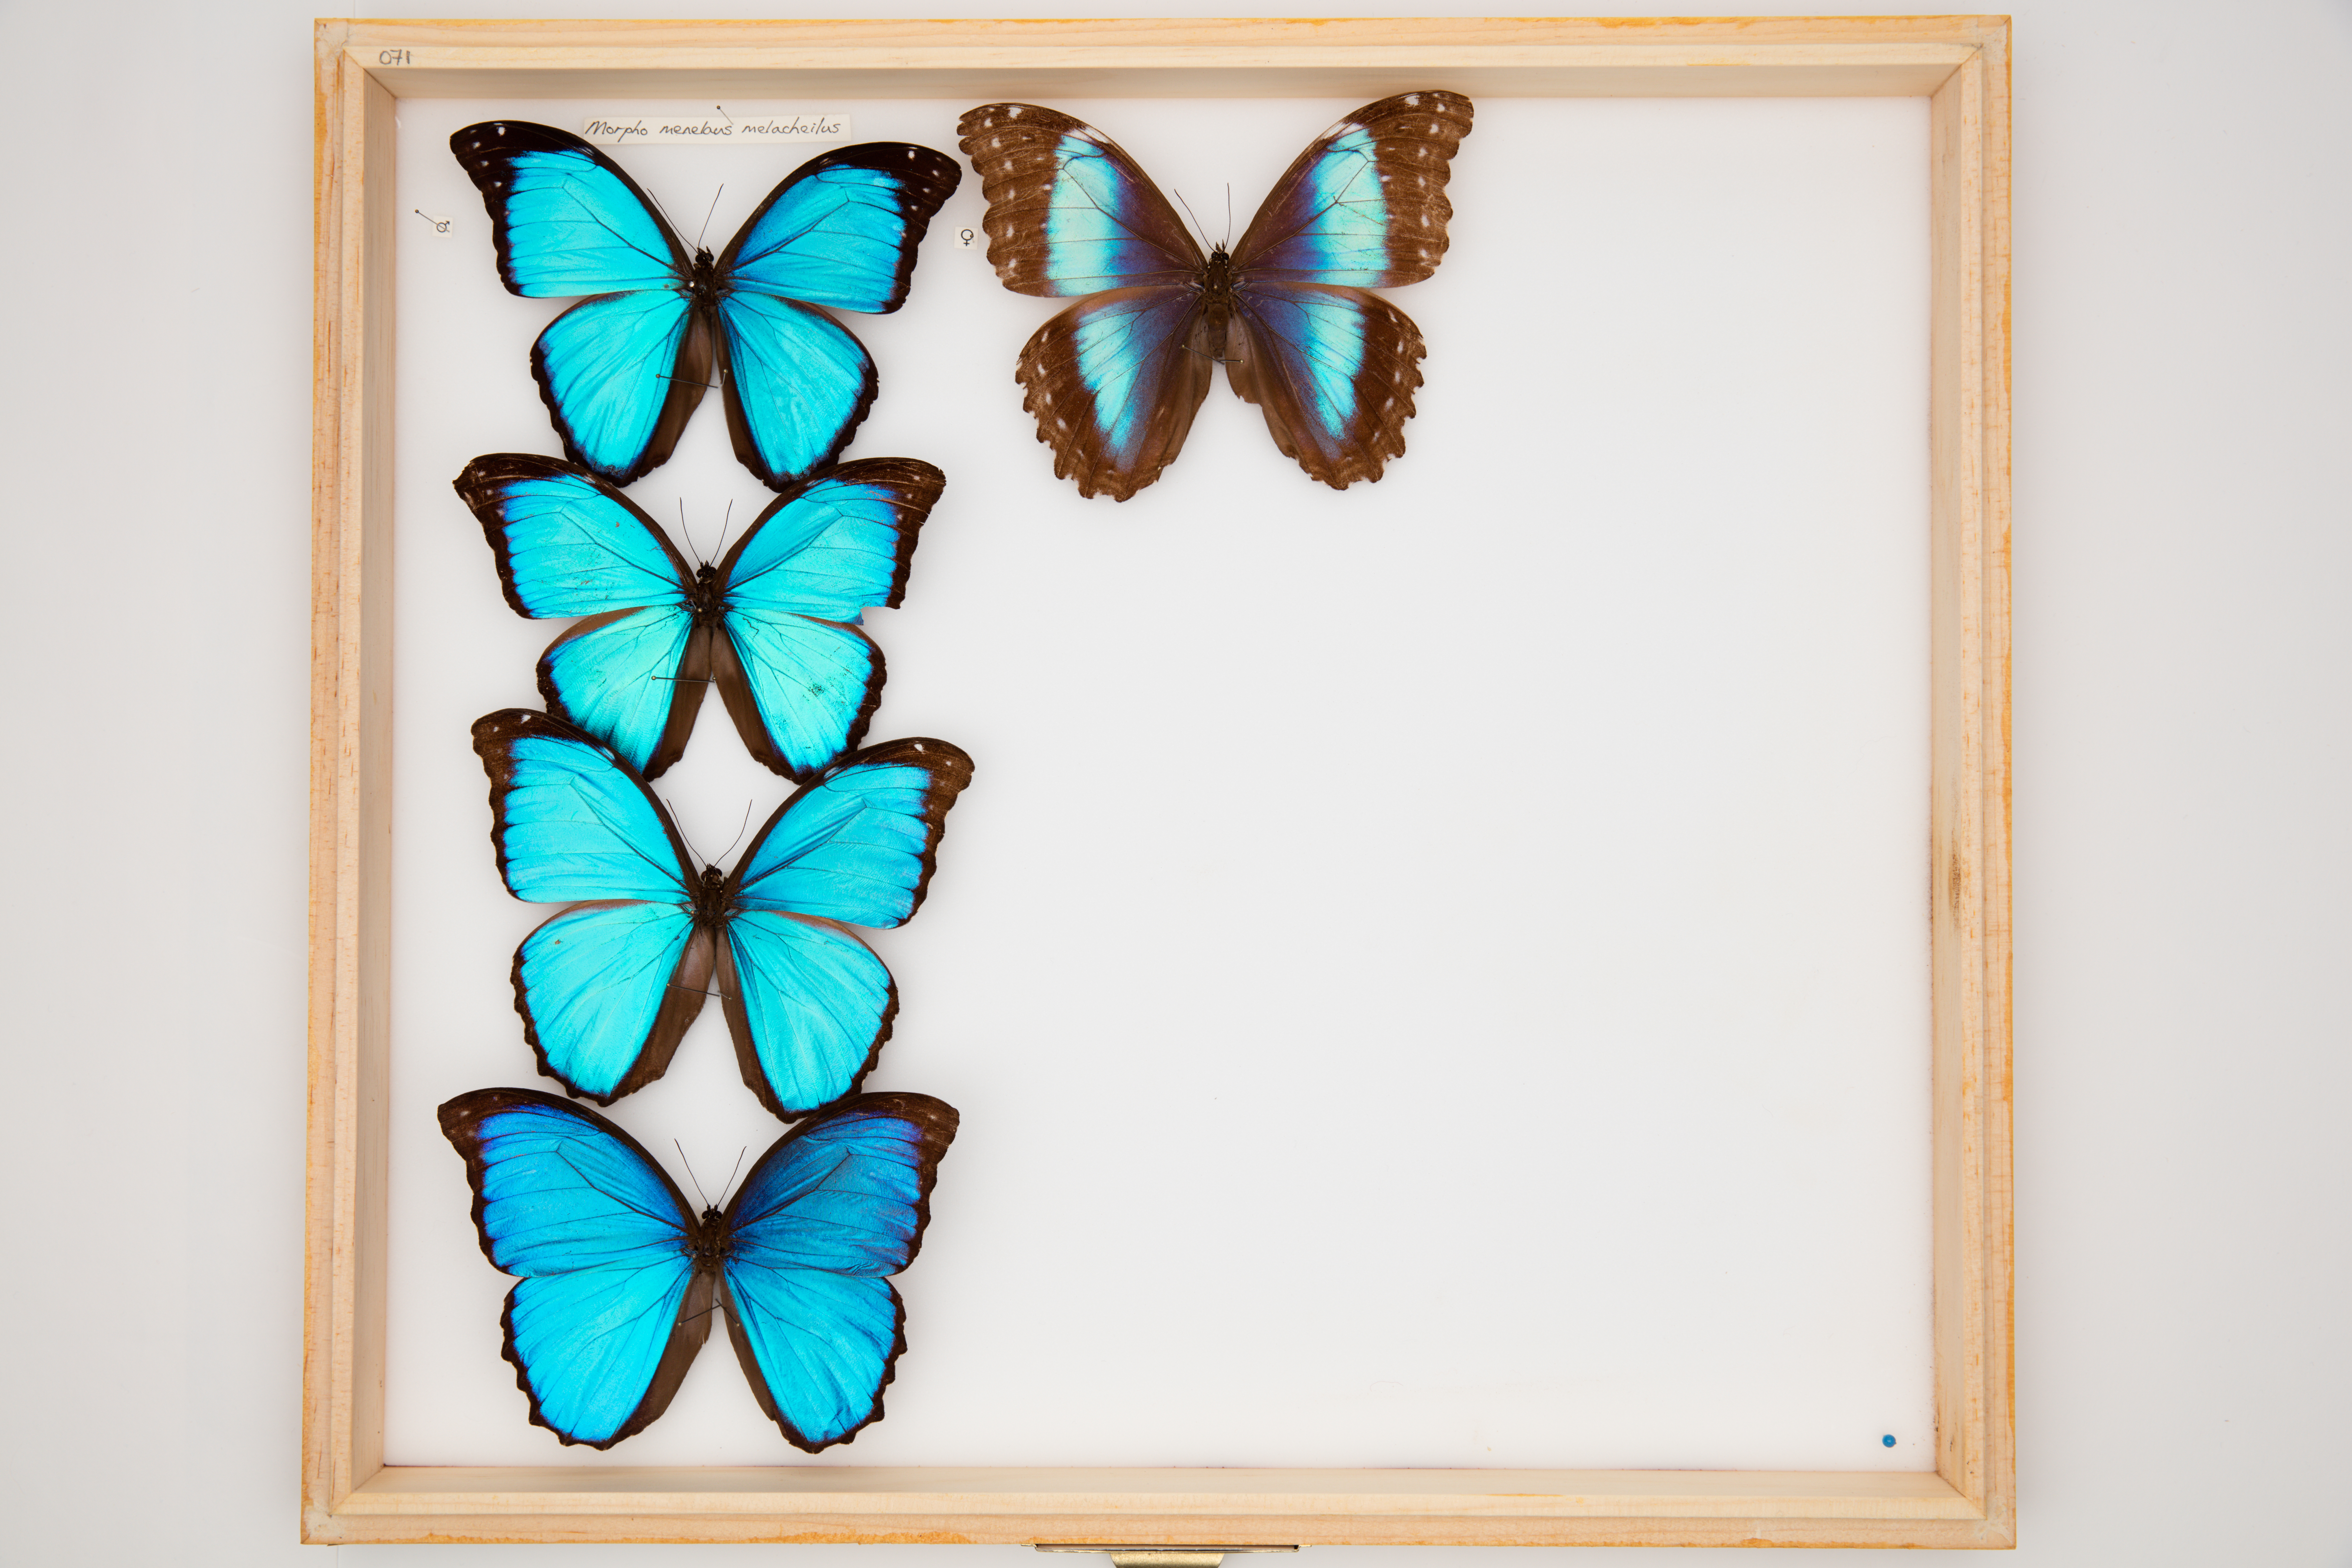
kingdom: Animalia
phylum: Arthropoda
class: Insecta
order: Lepidoptera
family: Nymphalidae
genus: Morpho
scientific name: Morpho menelaus
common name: Menelaus morpho
